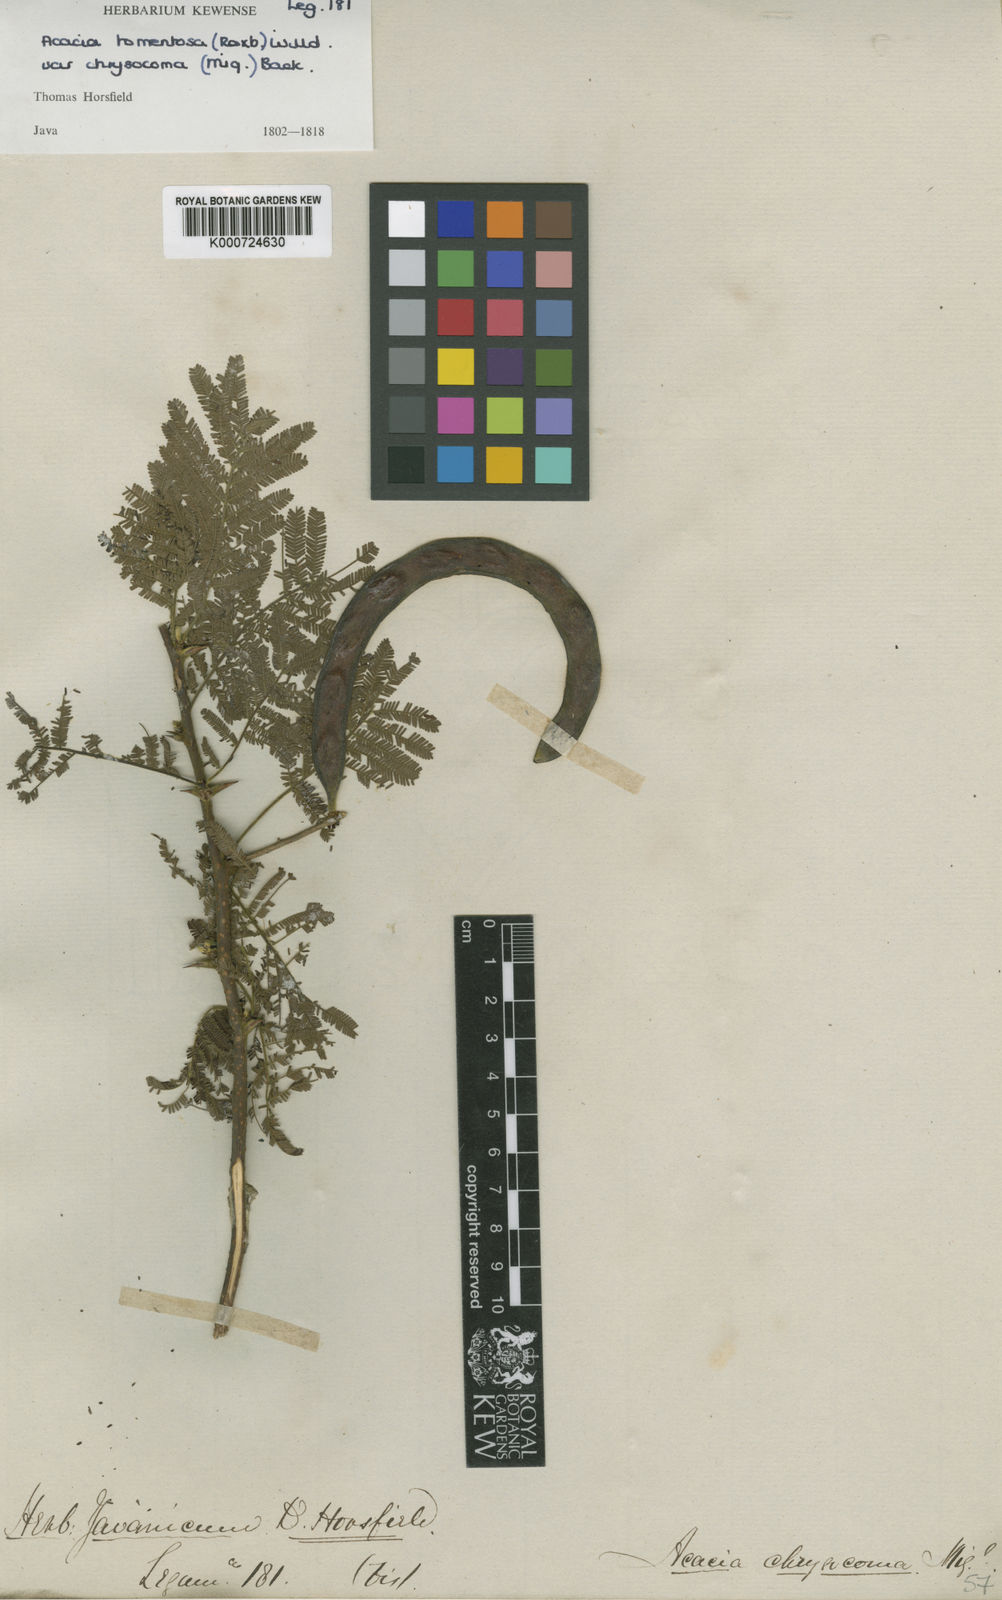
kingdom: Plantae
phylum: Tracheophyta
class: Magnoliopsida
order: Fabales
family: Fabaceae
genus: Vachellia
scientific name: Vachellia tomentosa
